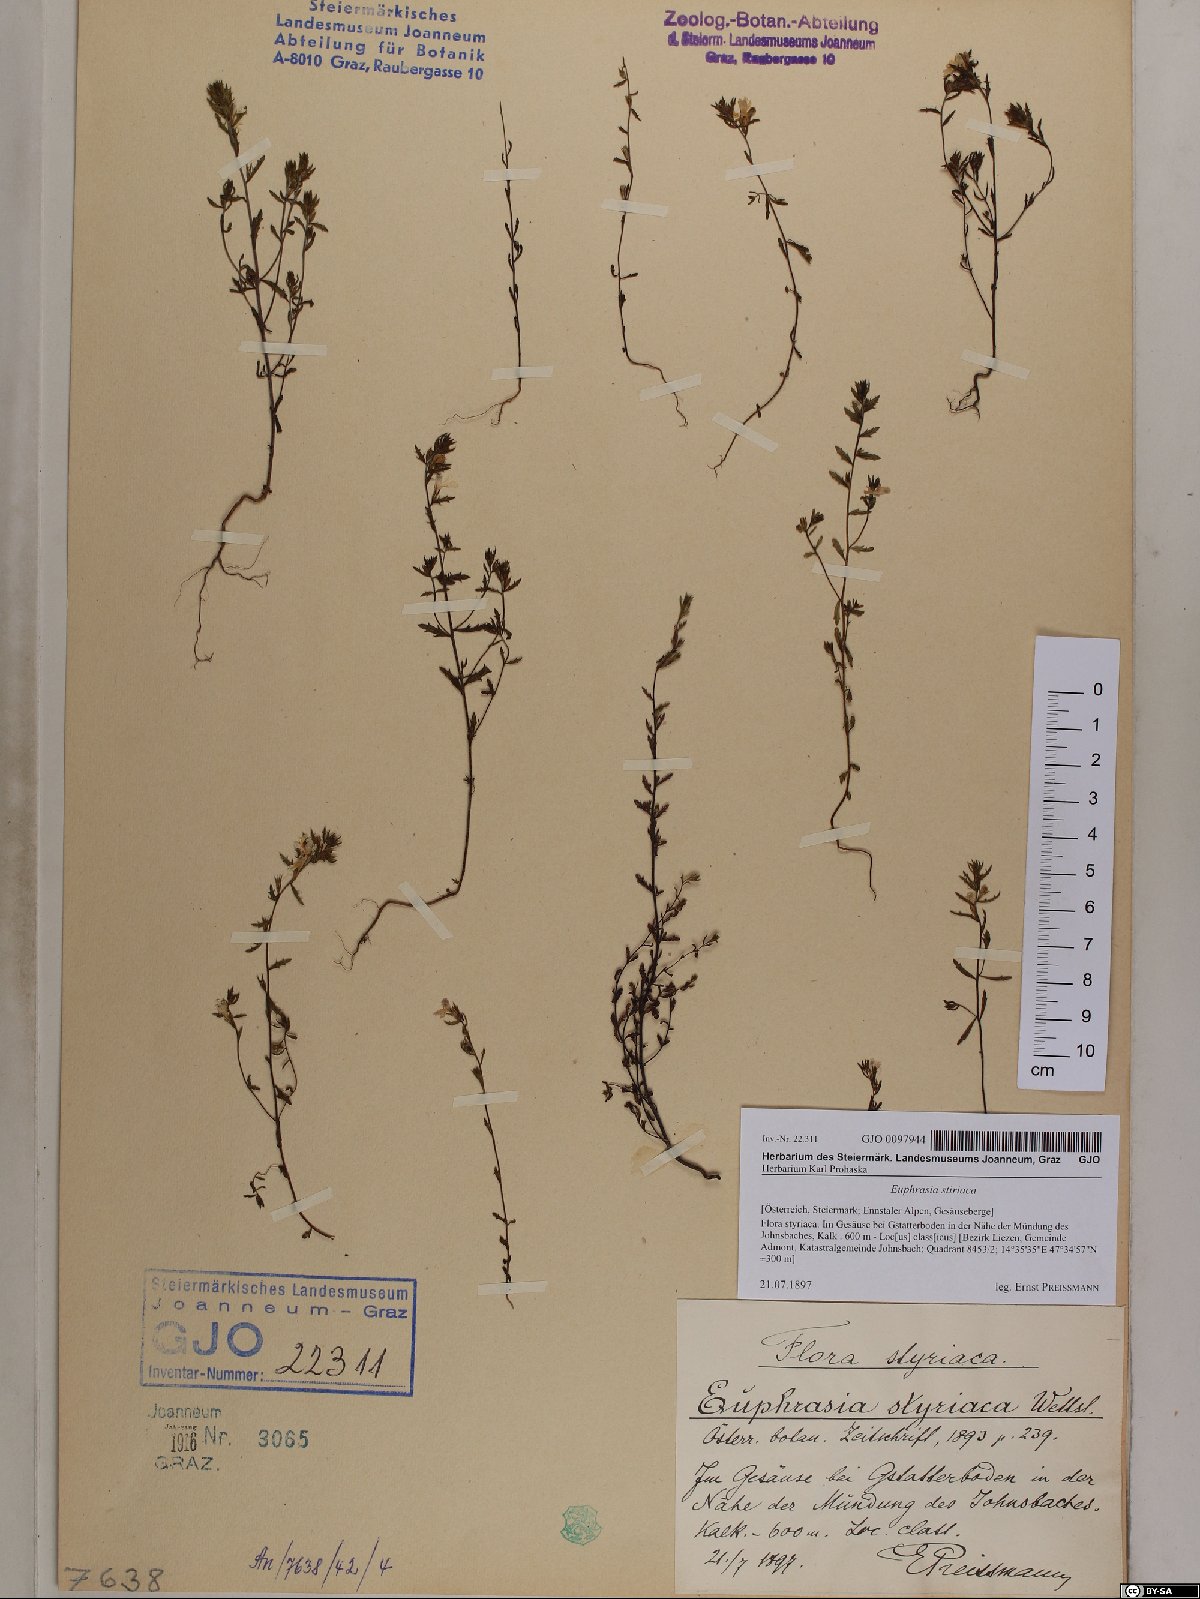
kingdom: Plantae
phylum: Tracheophyta
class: Magnoliopsida
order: Lamiales
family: Orobanchaceae
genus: Euphrasia
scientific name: Euphrasia cuspidata
